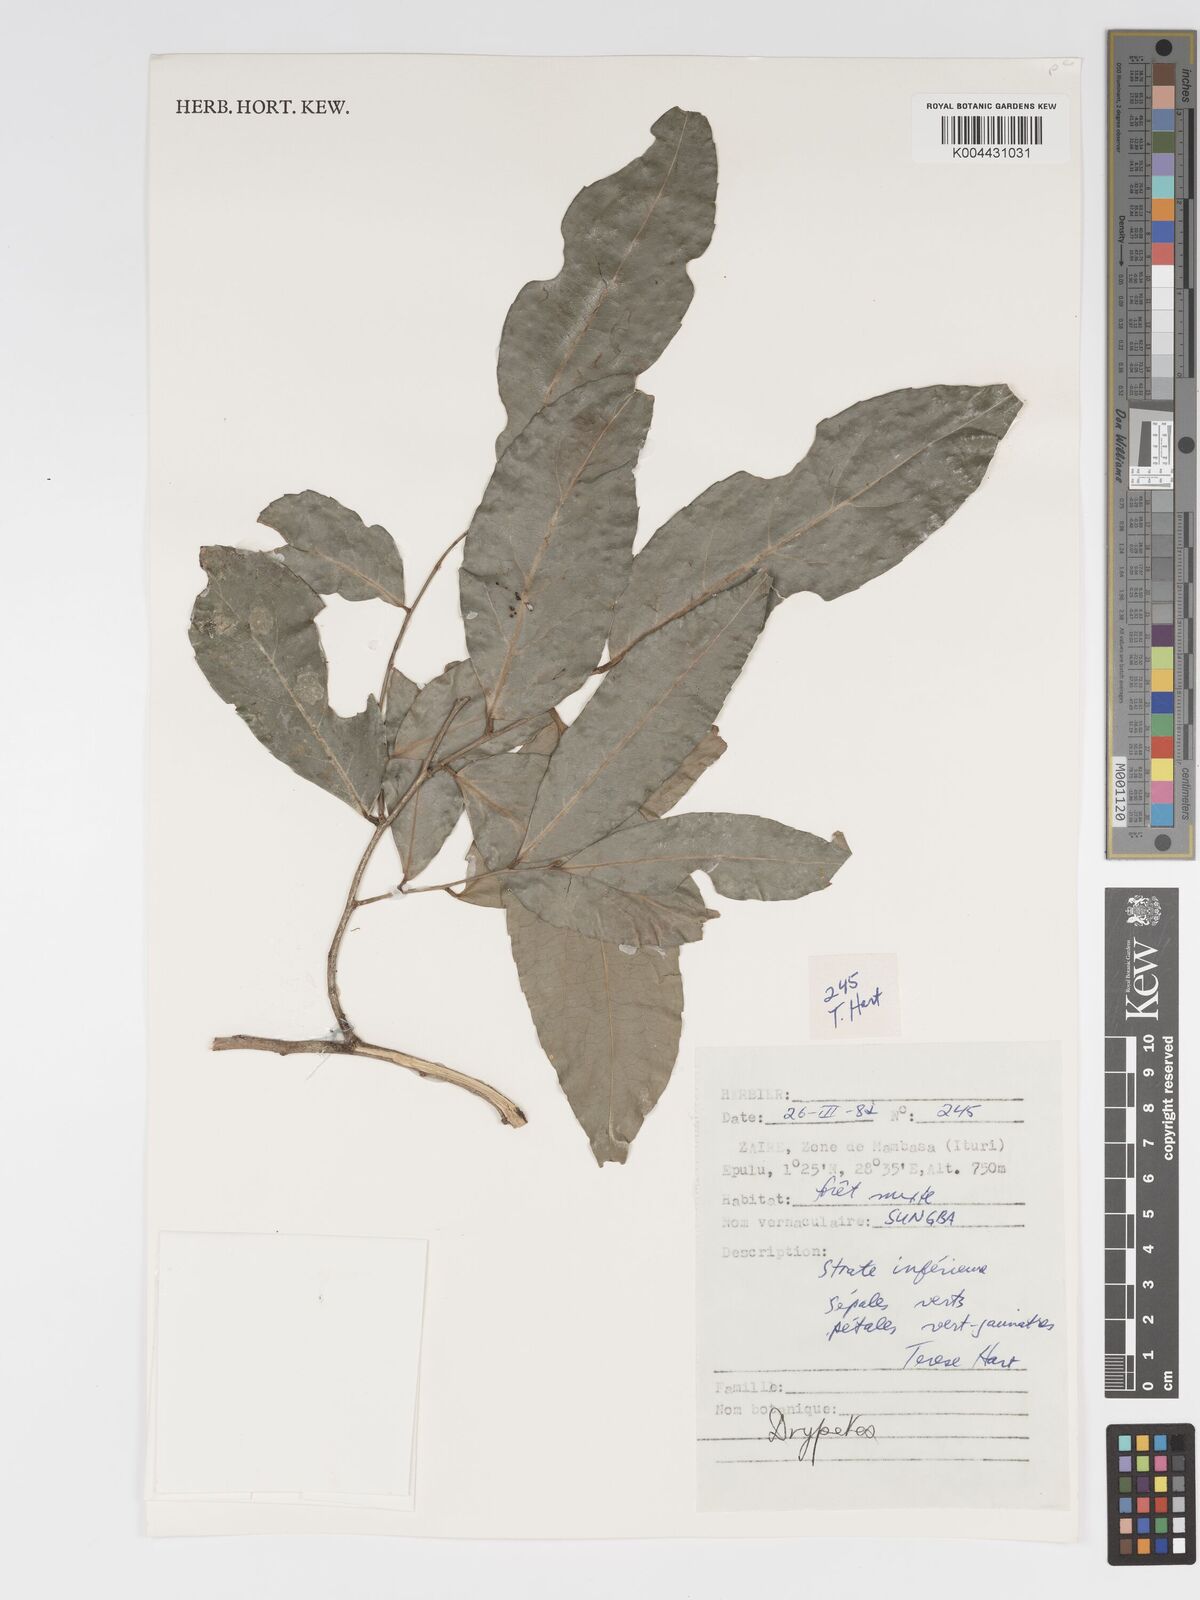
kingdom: Plantae
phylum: Tracheophyta
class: Magnoliopsida
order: Malpighiales
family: Putranjivaceae
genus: Drypetes
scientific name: Drypetes
